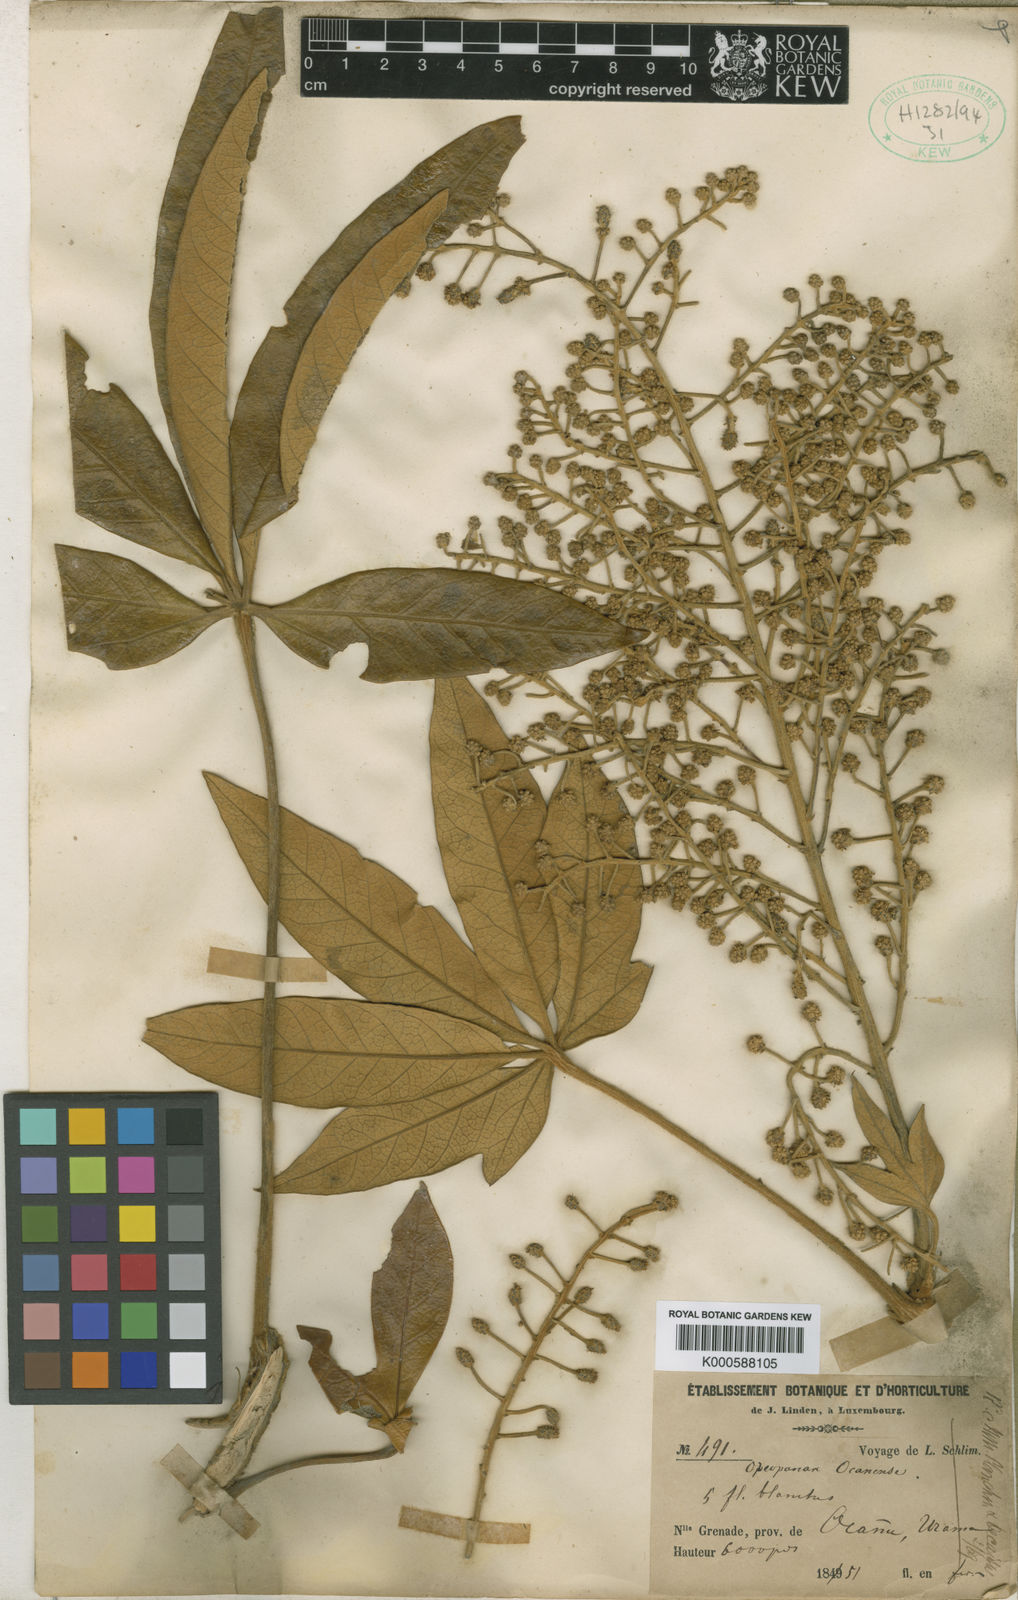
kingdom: Plantae
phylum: Tracheophyta
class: Magnoliopsida
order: Apiales
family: Araliaceae
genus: Oreopanax
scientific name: Oreopanax
